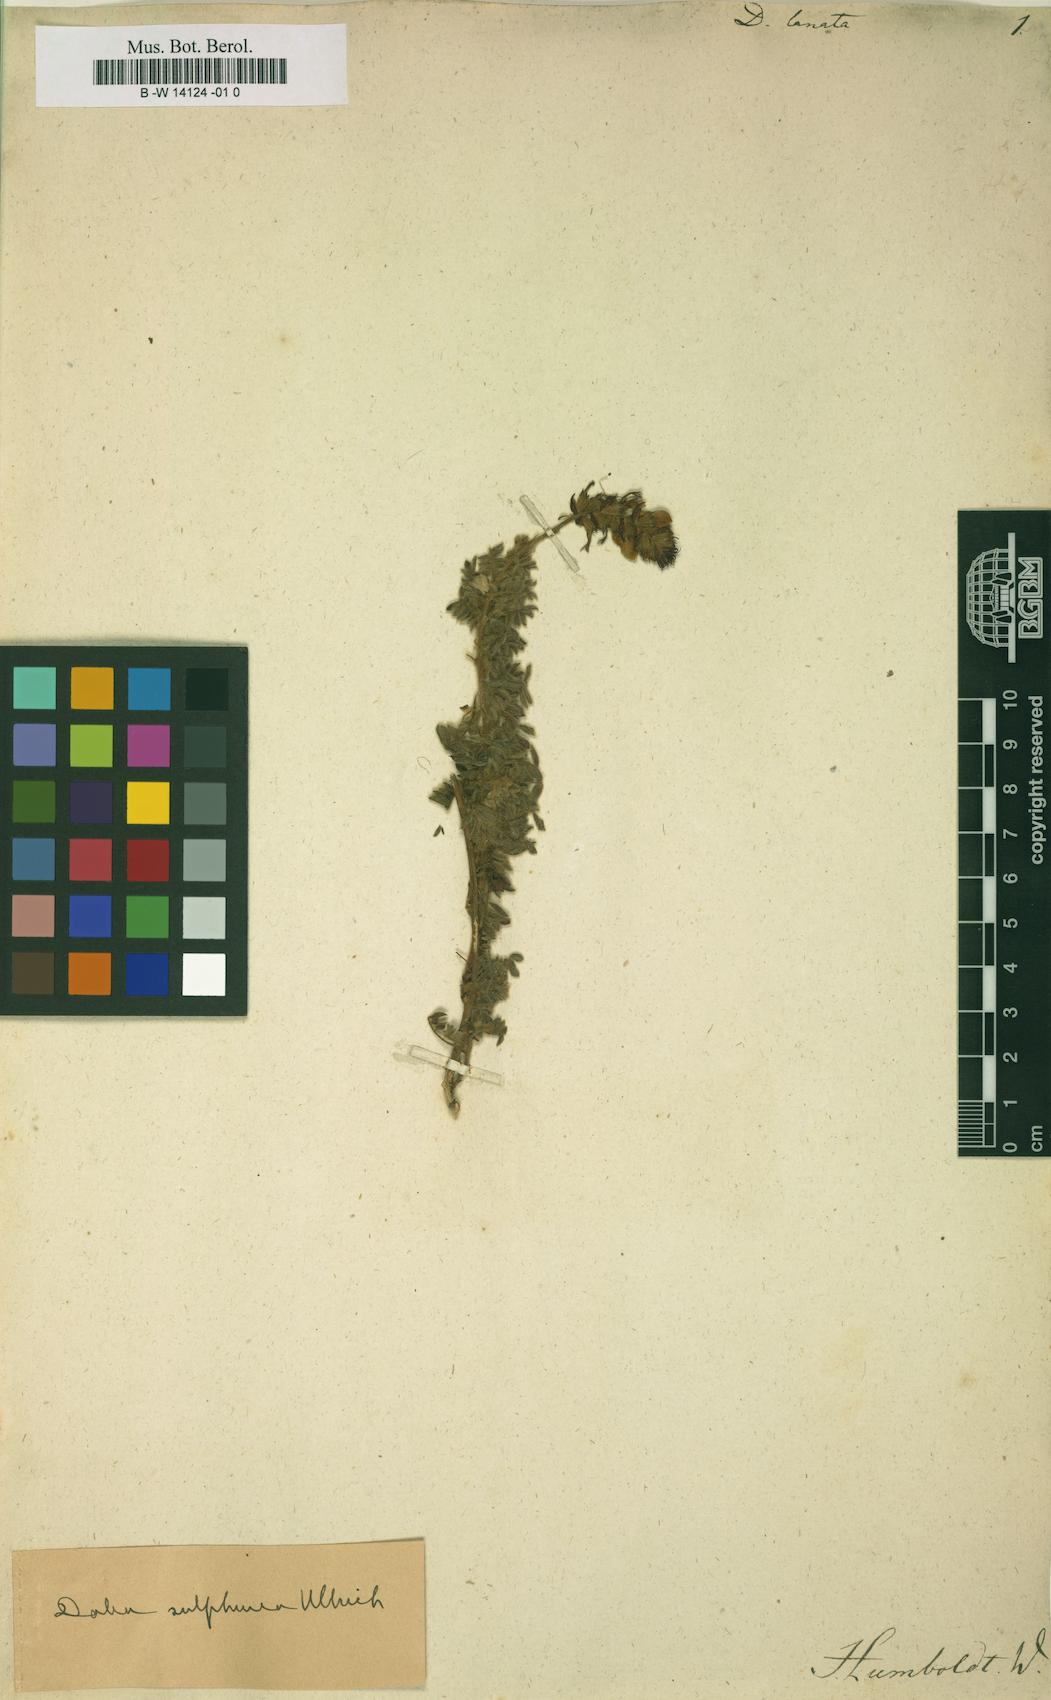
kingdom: Plantae
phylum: Tracheophyta
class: Magnoliopsida
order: Fabales
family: Fabaceae
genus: Dalea
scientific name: Dalea lanata
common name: Woolly dalea
